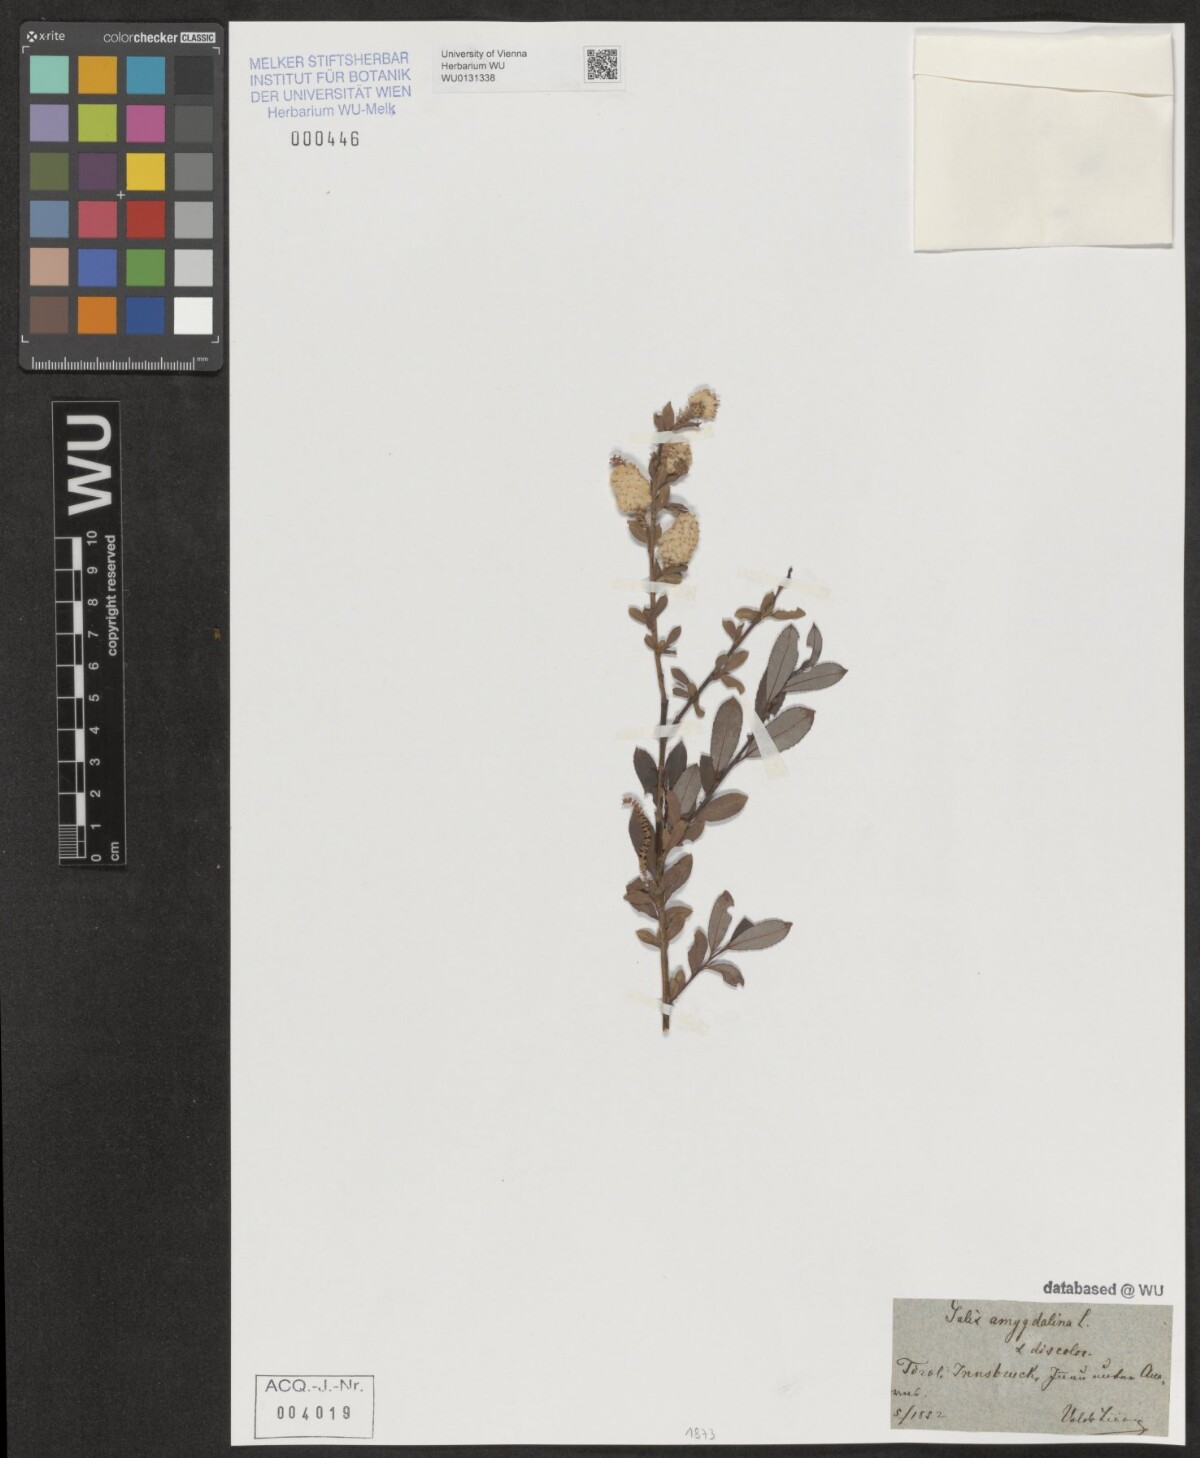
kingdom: Plantae
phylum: Tracheophyta
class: Magnoliopsida
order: Malpighiales
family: Salicaceae
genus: Salix
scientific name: Salix triandra
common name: Almond willow
